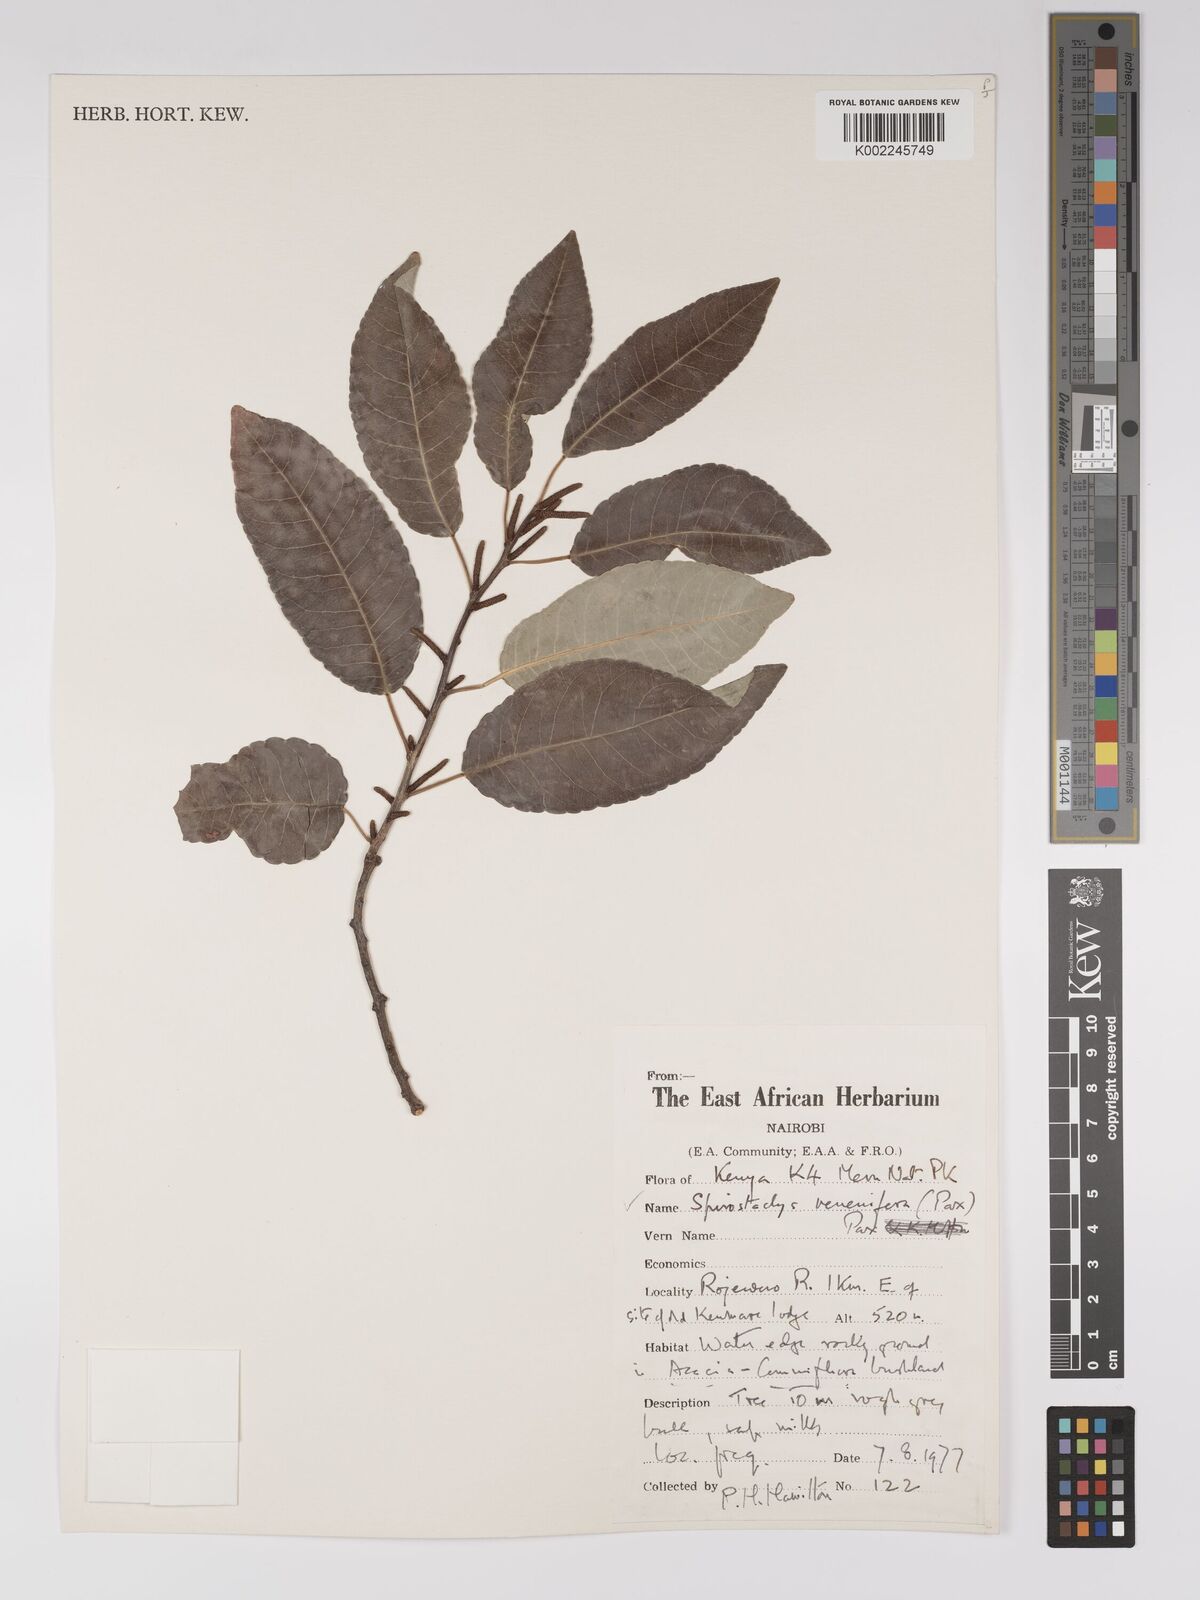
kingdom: Plantae
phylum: Tracheophyta
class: Magnoliopsida
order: Malpighiales
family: Euphorbiaceae
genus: Spirostachys
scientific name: Spirostachys venenifera
